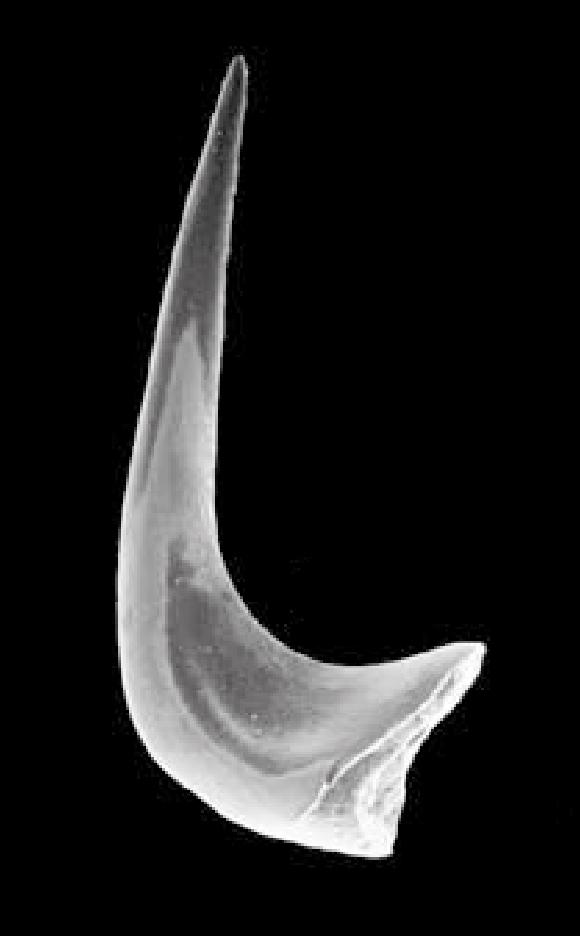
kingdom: Animalia
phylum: Chordata
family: Protopanderodontidae
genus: Variabiloconus
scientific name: Variabiloconus
